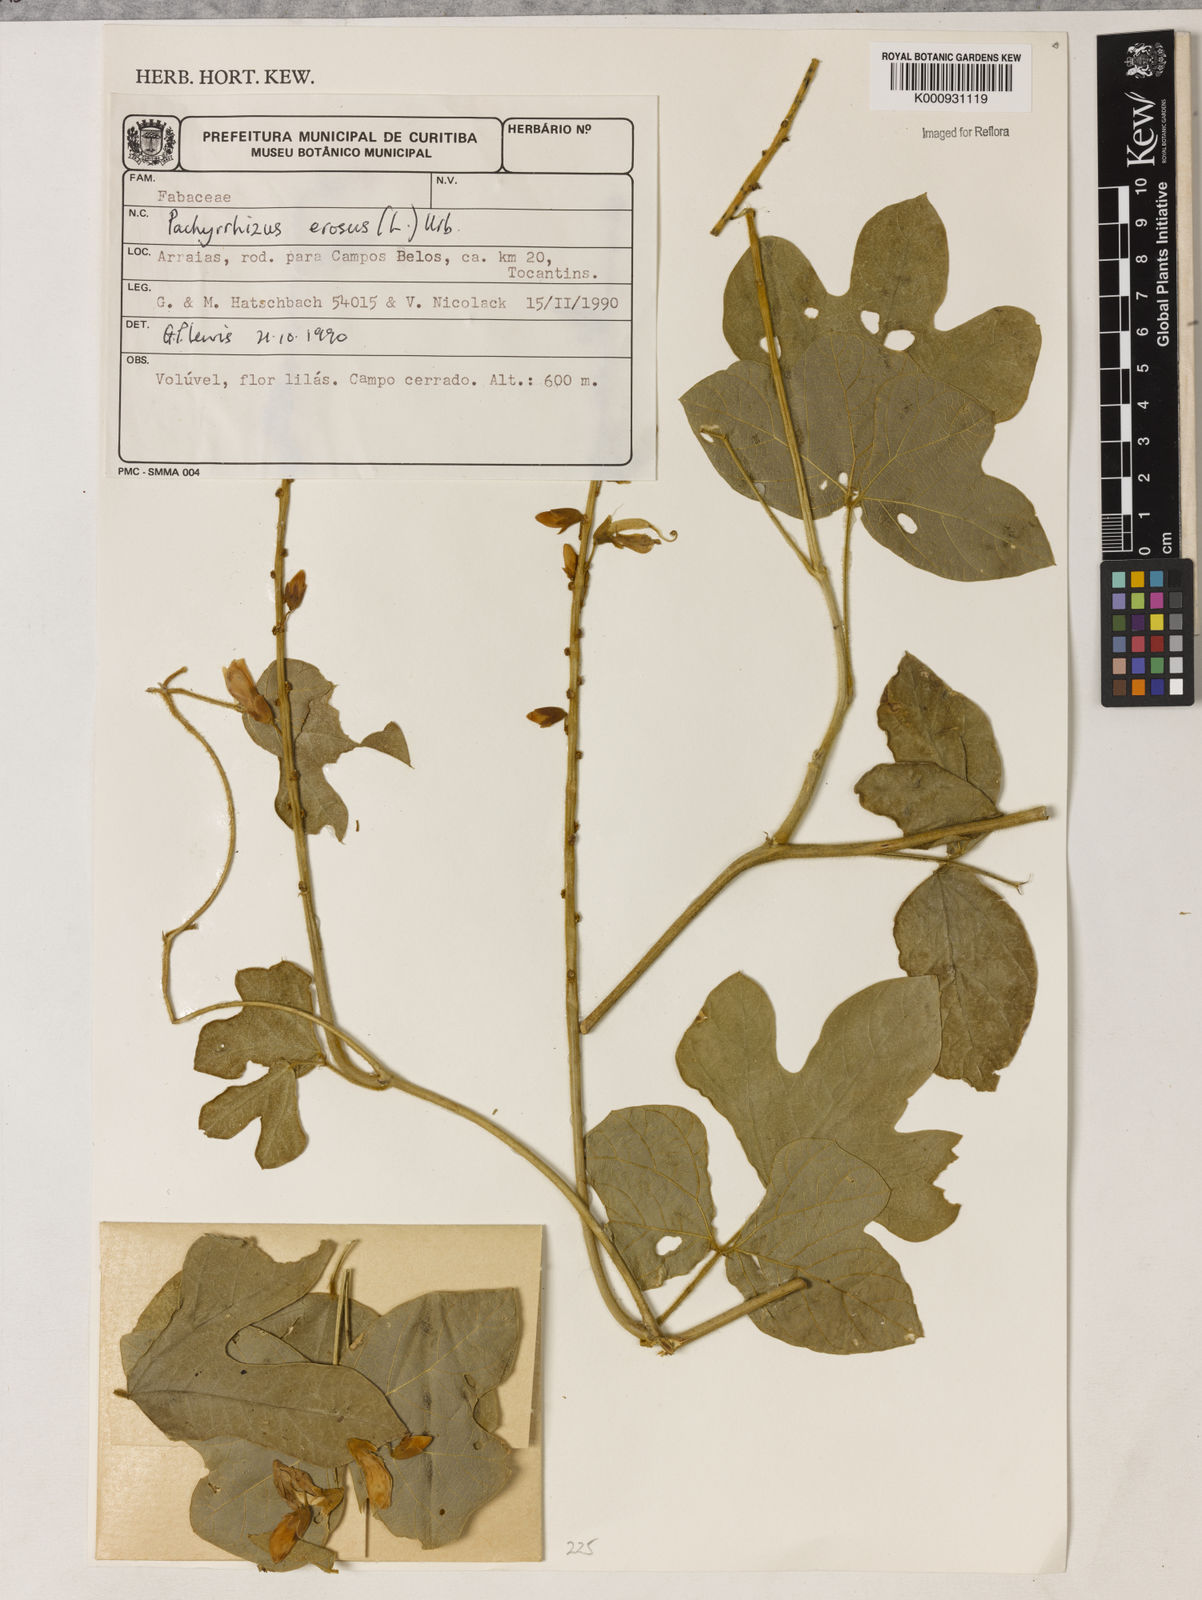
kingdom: Plantae
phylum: Tracheophyta
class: Magnoliopsida
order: Fabales
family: Fabaceae
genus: Pachyrhizus
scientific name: Pachyrhizus erosus
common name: Yam bean
